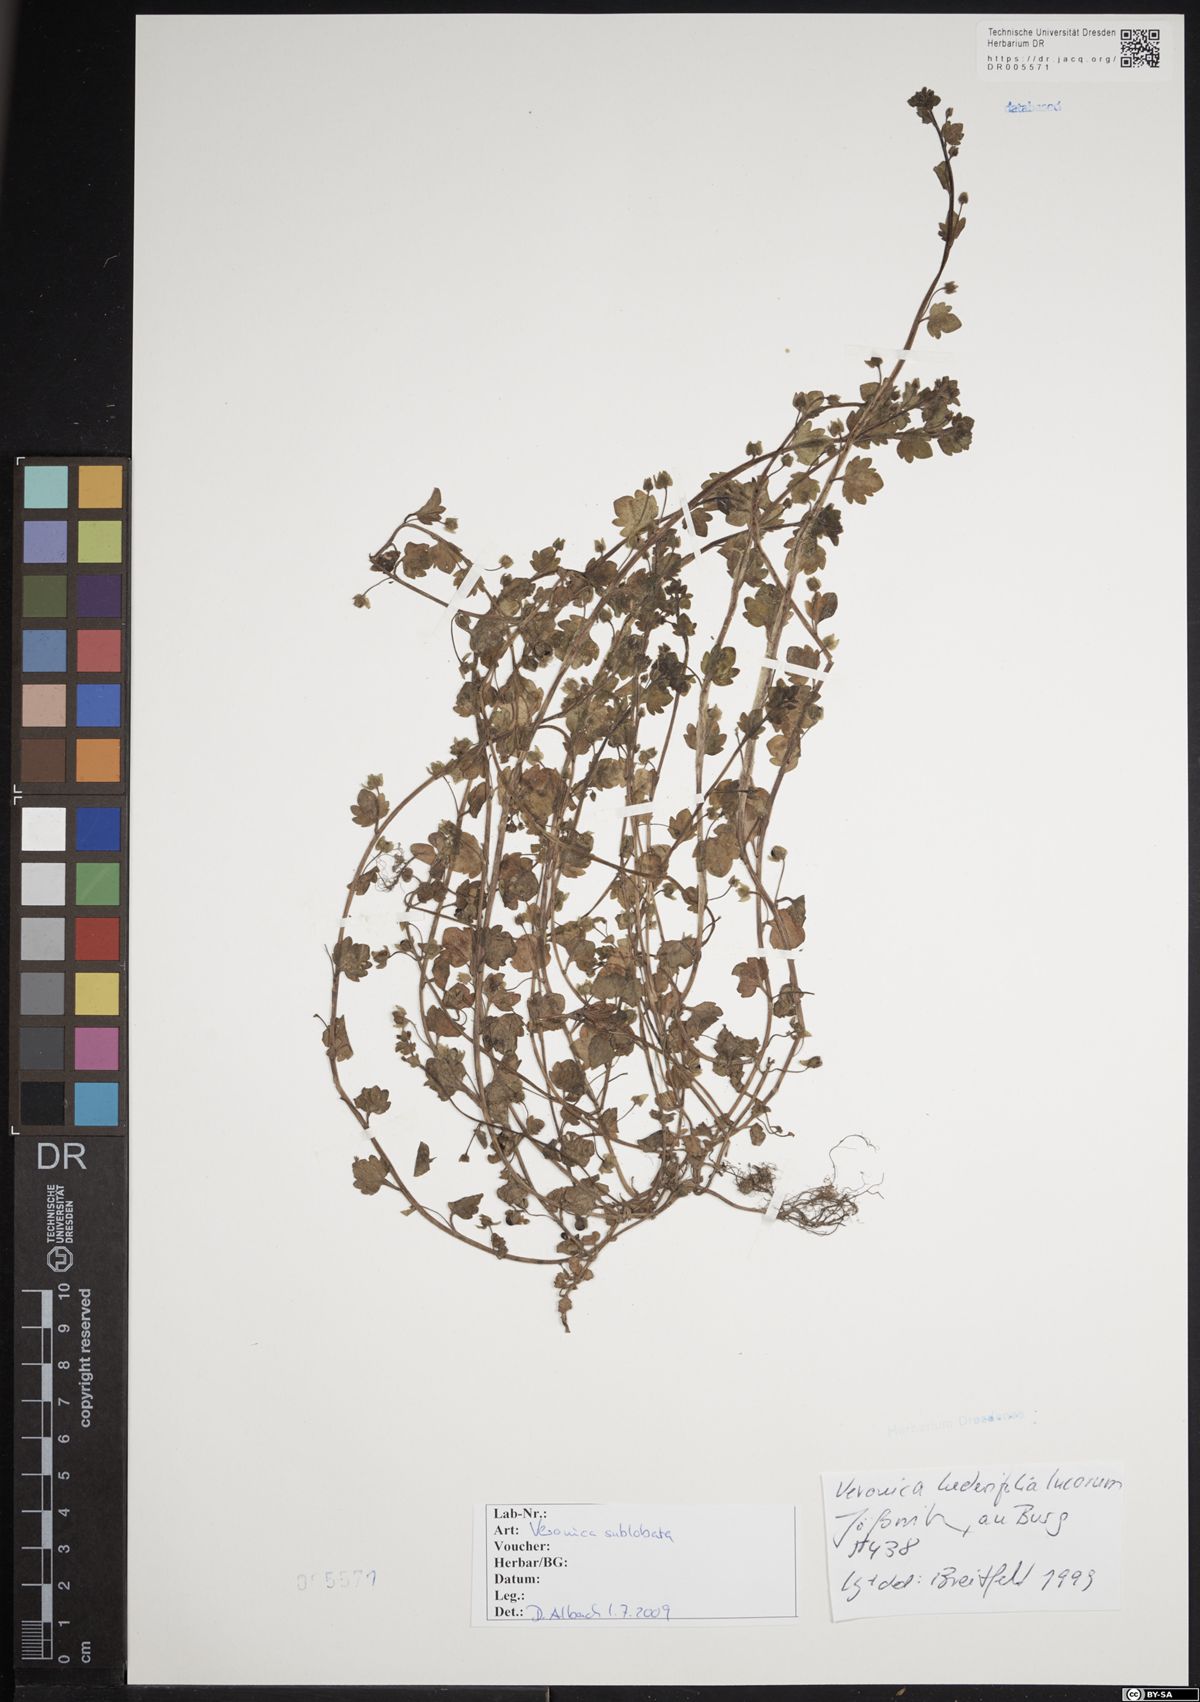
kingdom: Plantae
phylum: Tracheophyta
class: Magnoliopsida
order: Lamiales
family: Plantaginaceae
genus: Veronica
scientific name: Veronica sublobata
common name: False ivy-leaved speedwell
